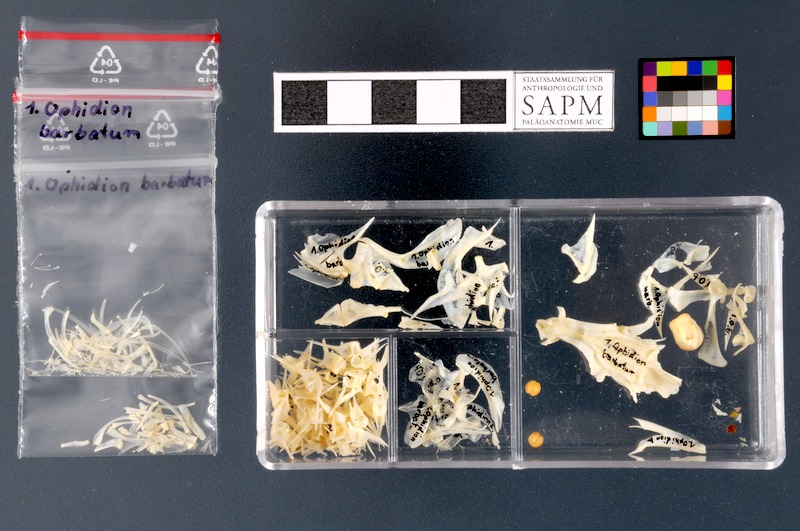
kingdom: Animalia
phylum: Chordata
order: Ophidiiformes
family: Ophidiidae
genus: Ophidion
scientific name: Ophidion barbatum
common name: Snake blenny
